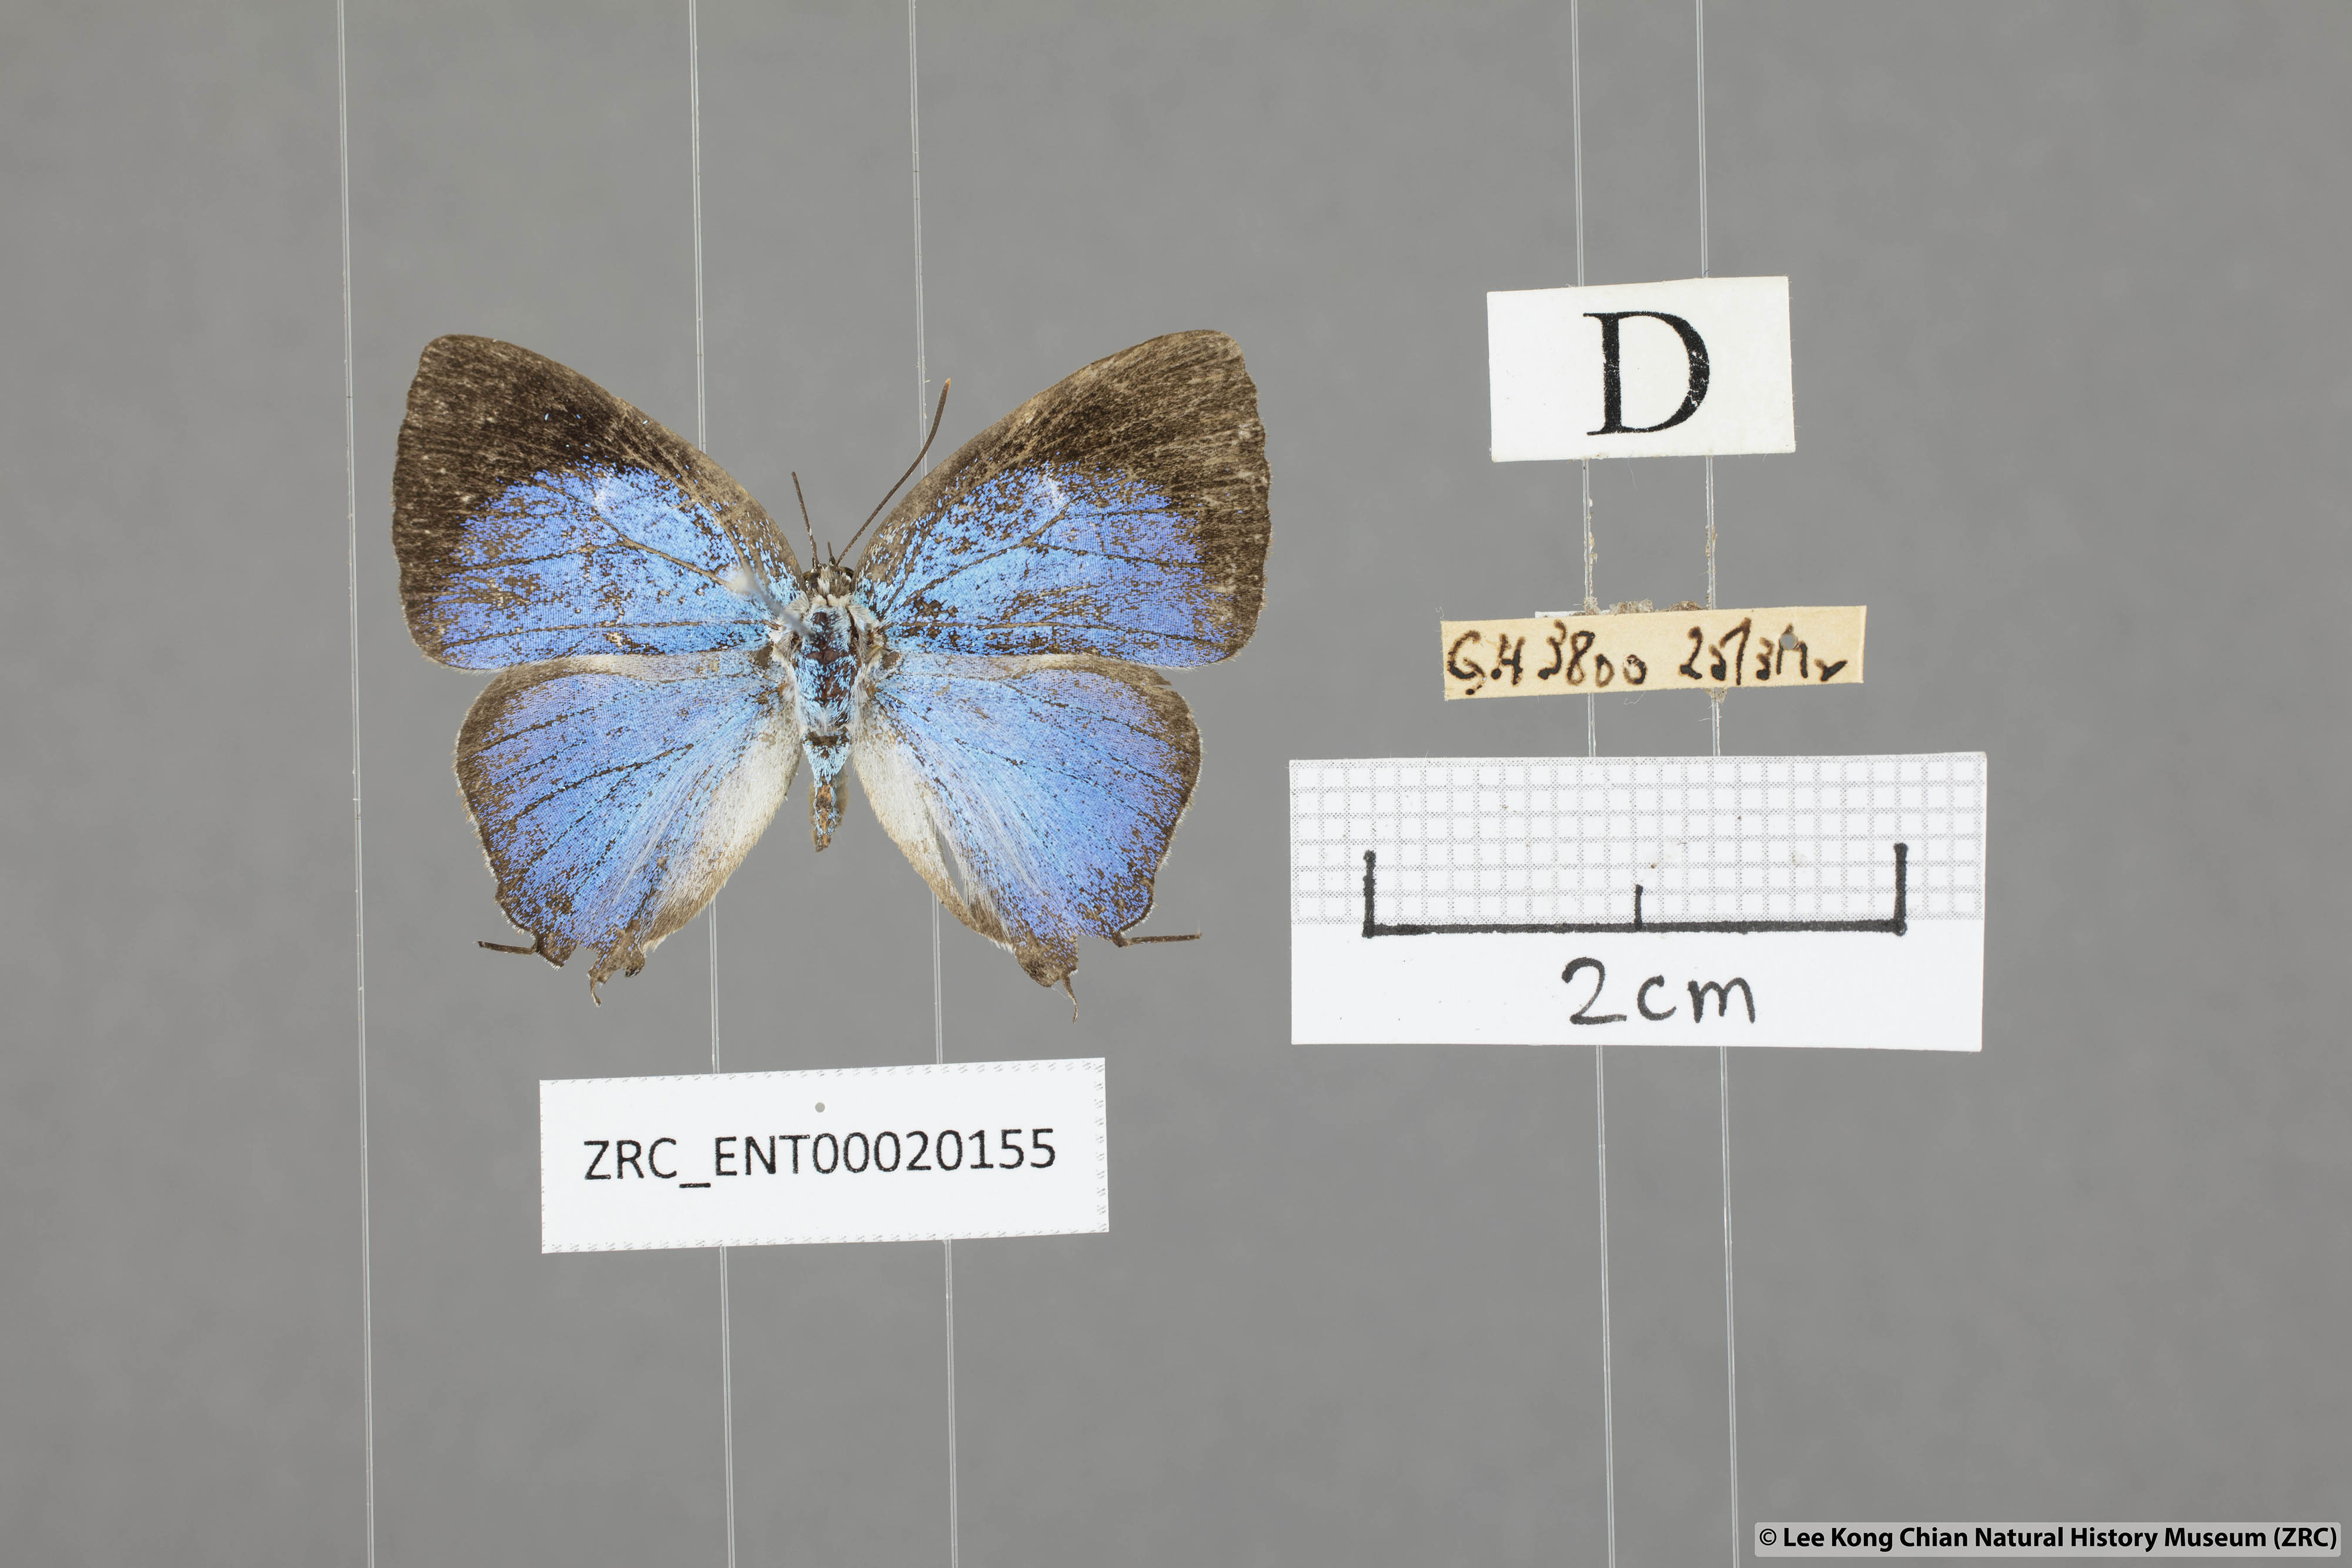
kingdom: Animalia
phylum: Arthropoda
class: Insecta
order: Lepidoptera
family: Lycaenidae
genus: Dacalana
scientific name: Dacalana
